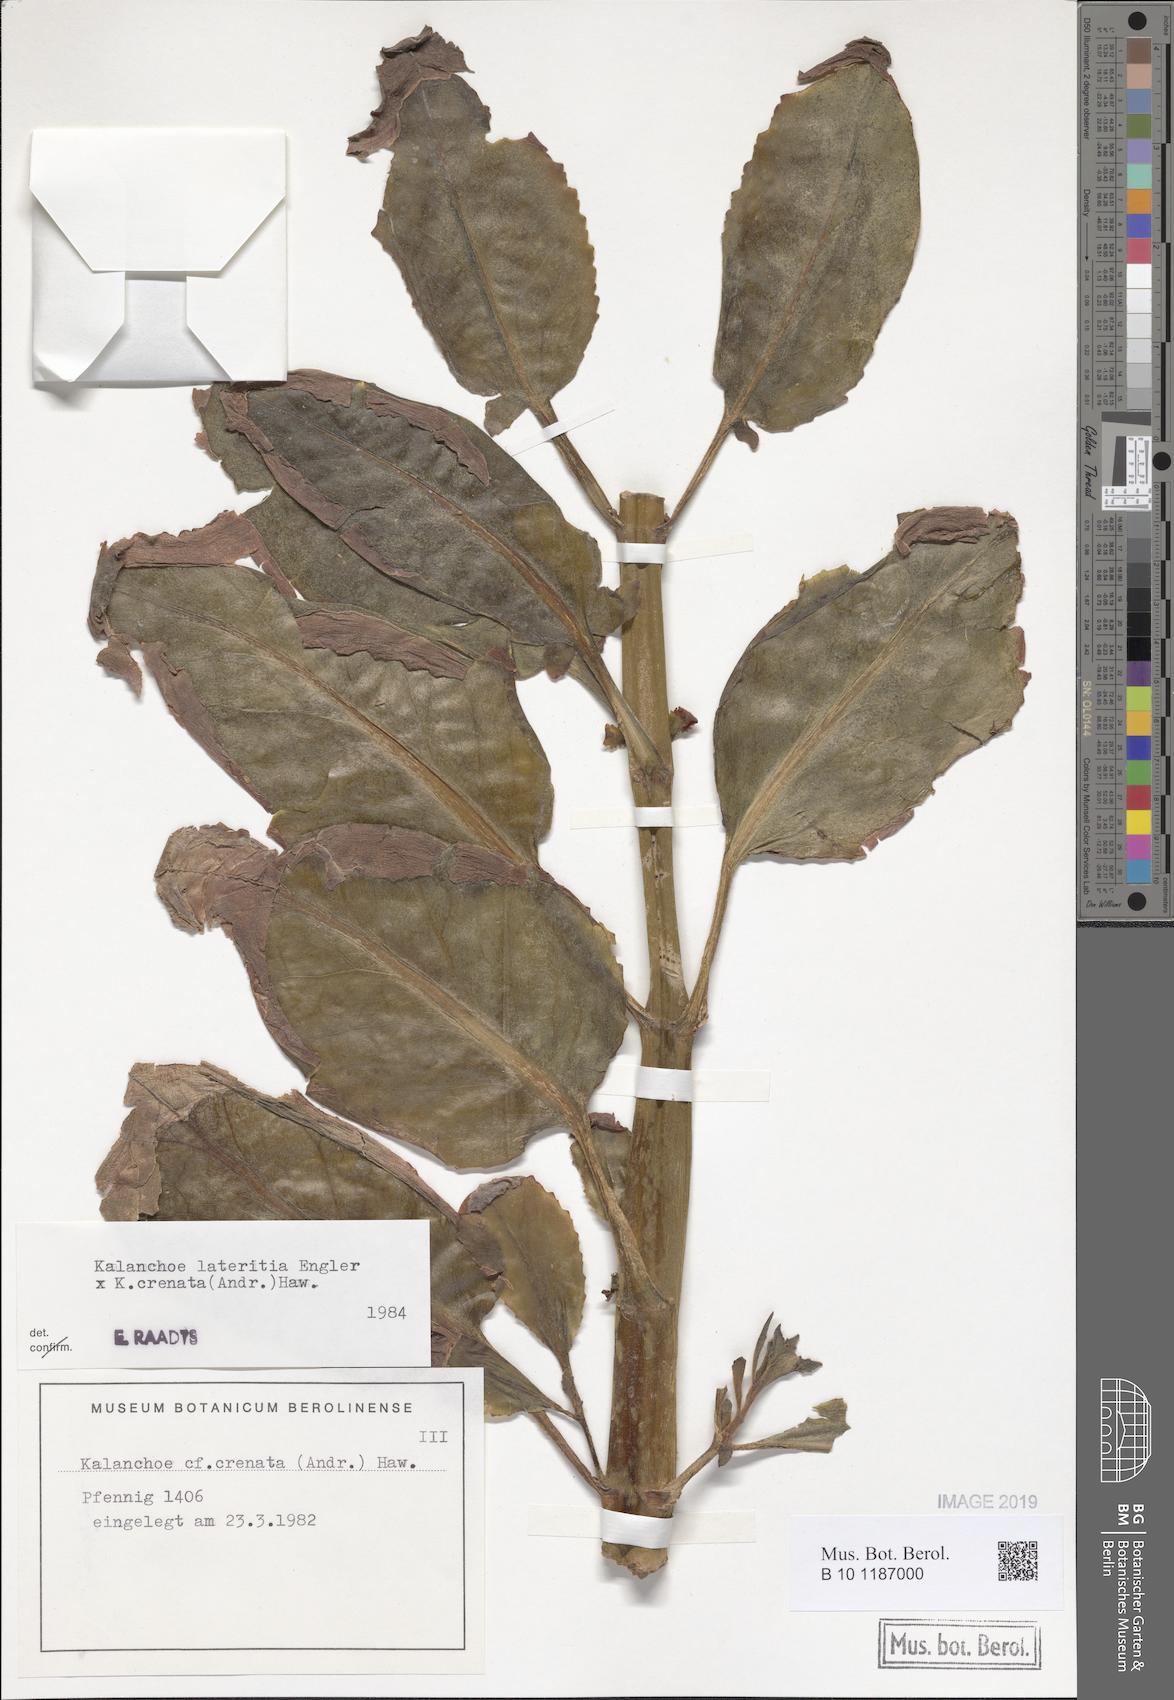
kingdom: Plantae
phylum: Tracheophyta
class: Magnoliopsida
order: Saxifragales
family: Crassulaceae
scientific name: Crassulaceae
